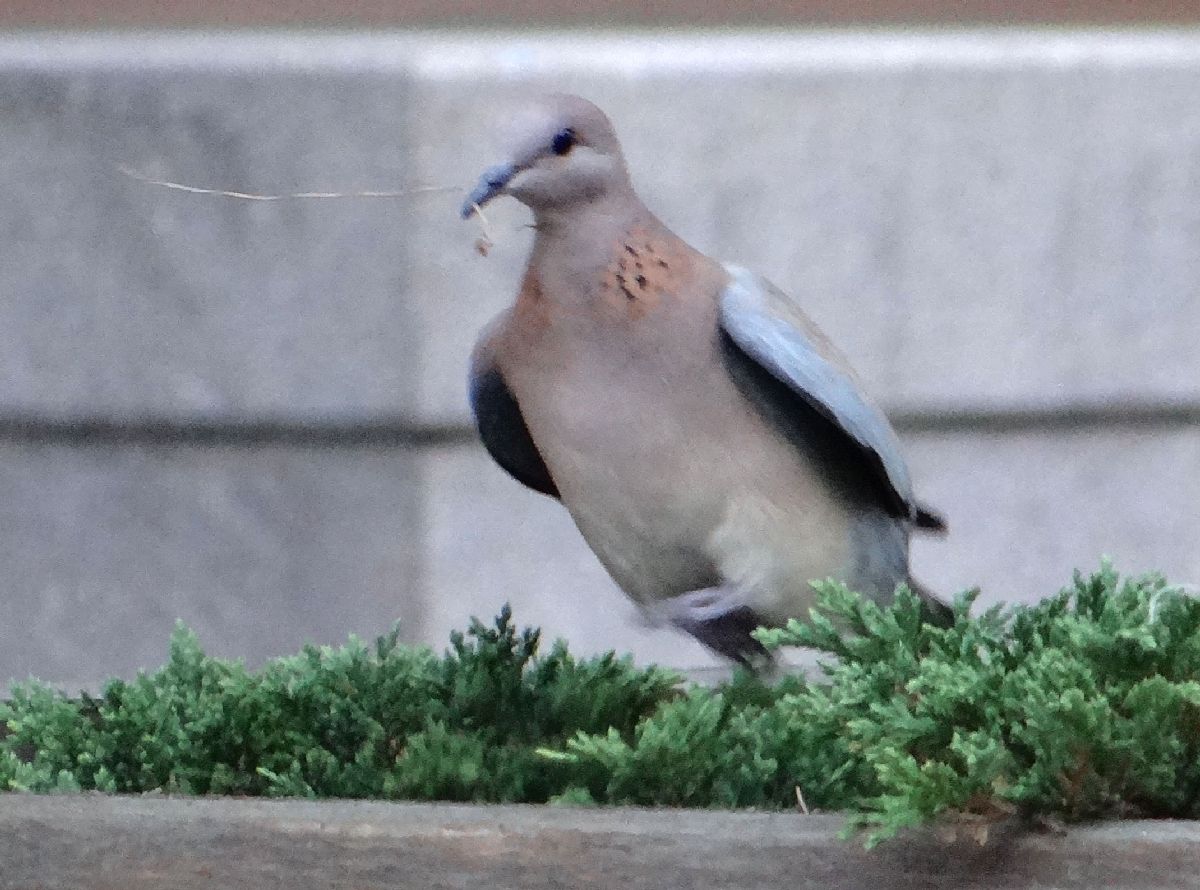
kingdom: Animalia
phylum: Chordata
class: Aves
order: Columbiformes
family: Columbidae
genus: Spilopelia
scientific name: Spilopelia senegalensis
